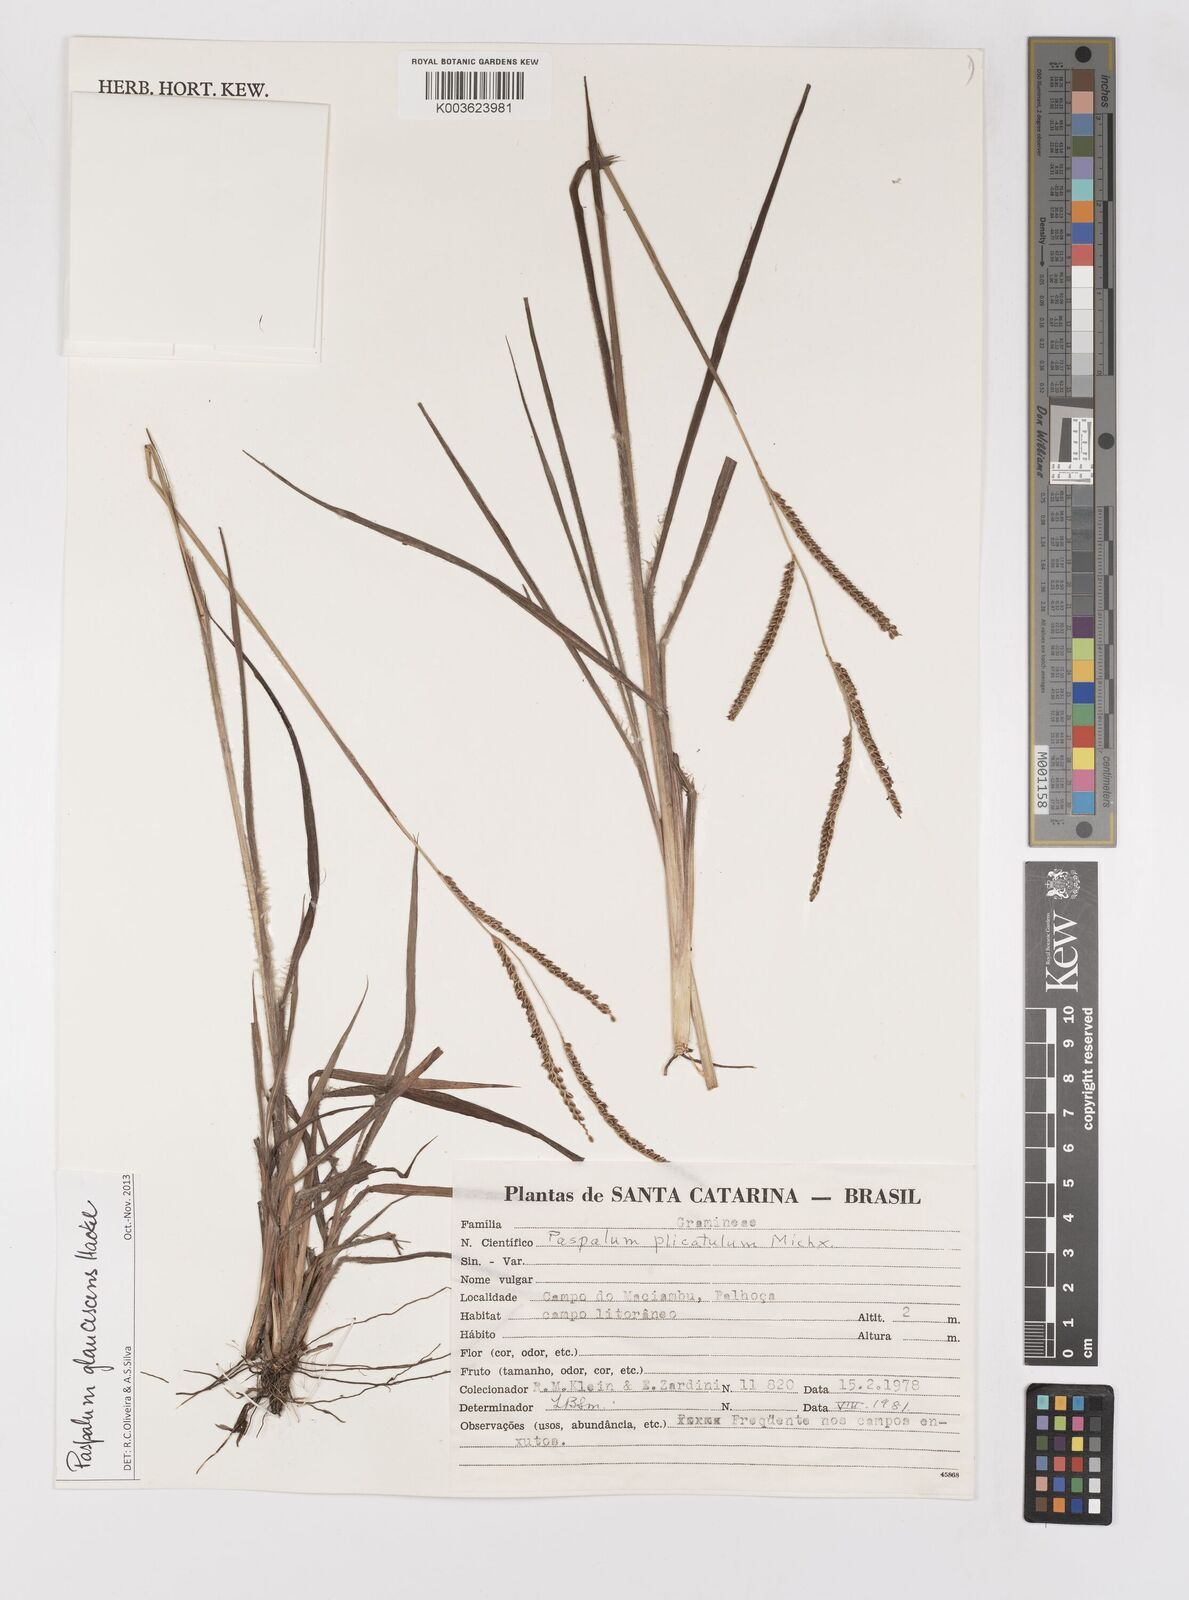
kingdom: Plantae
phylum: Tracheophyta
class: Liliopsida
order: Poales
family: Poaceae
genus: Paspalum
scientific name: Paspalum
